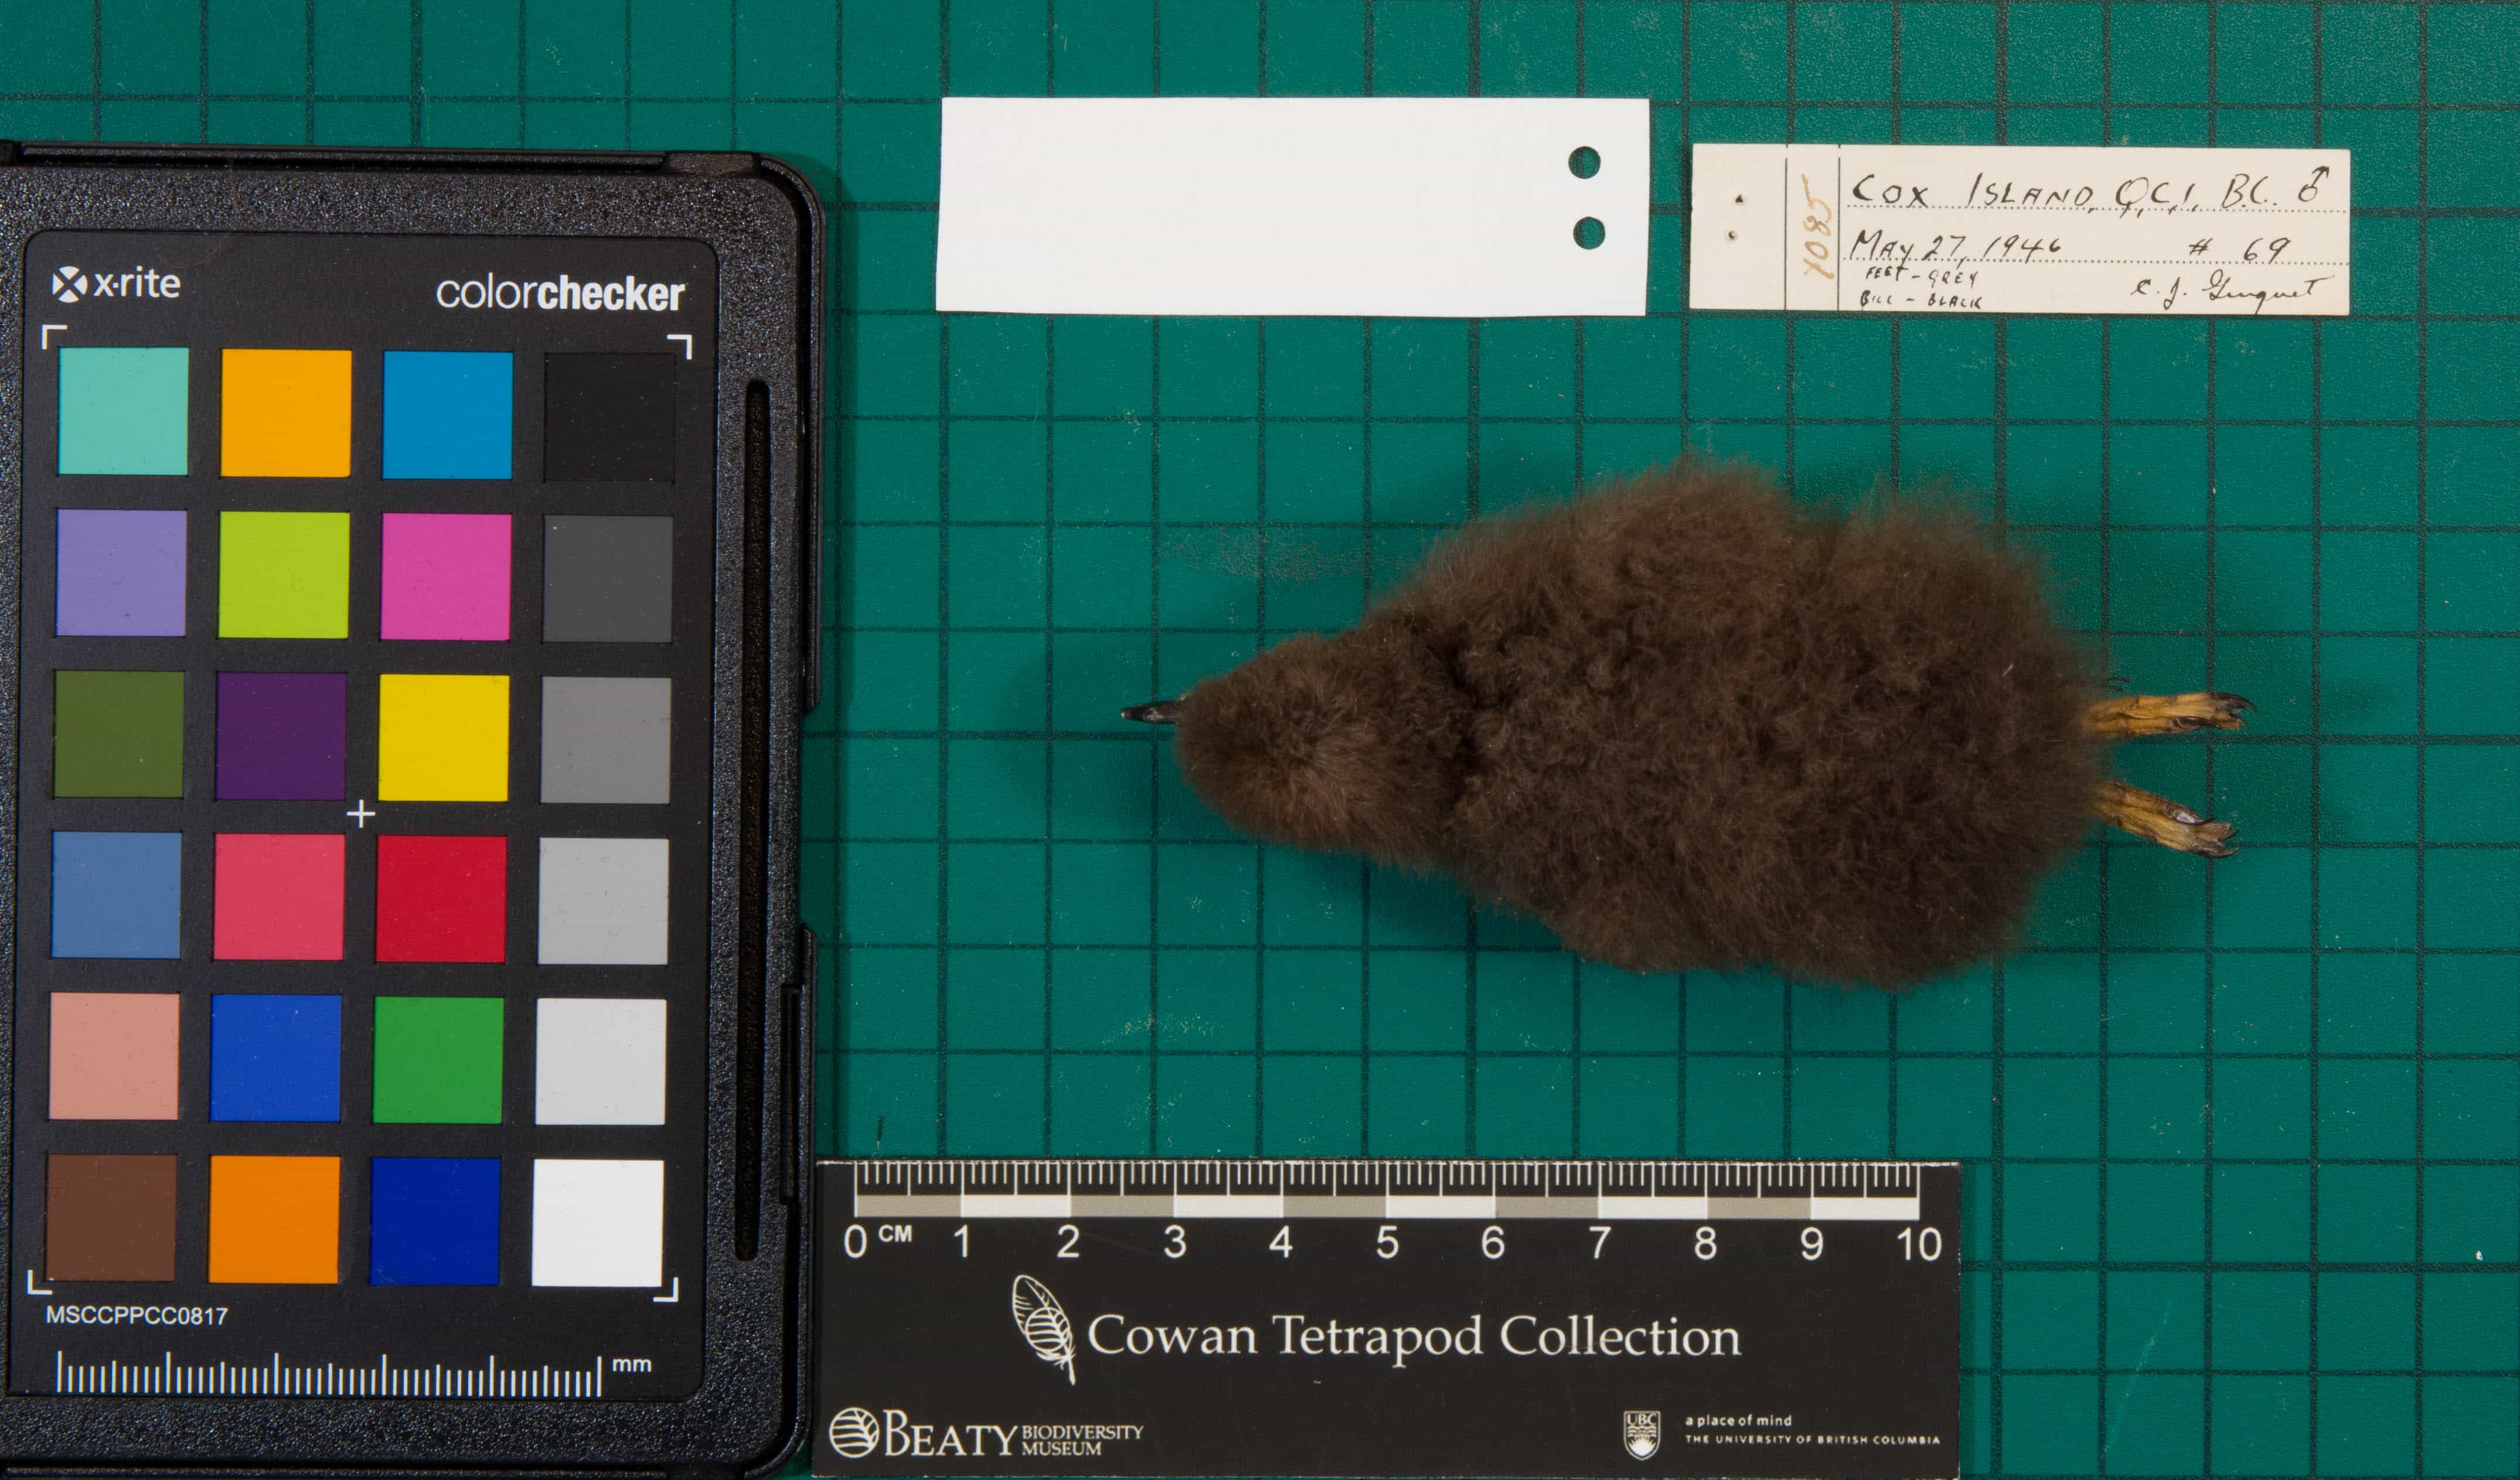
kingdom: Animalia
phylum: Chordata
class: Aves
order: Charadriiformes
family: Alcidae
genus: Ptychoramphus
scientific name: Ptychoramphus aleuticus
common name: Cassin's Auklet
